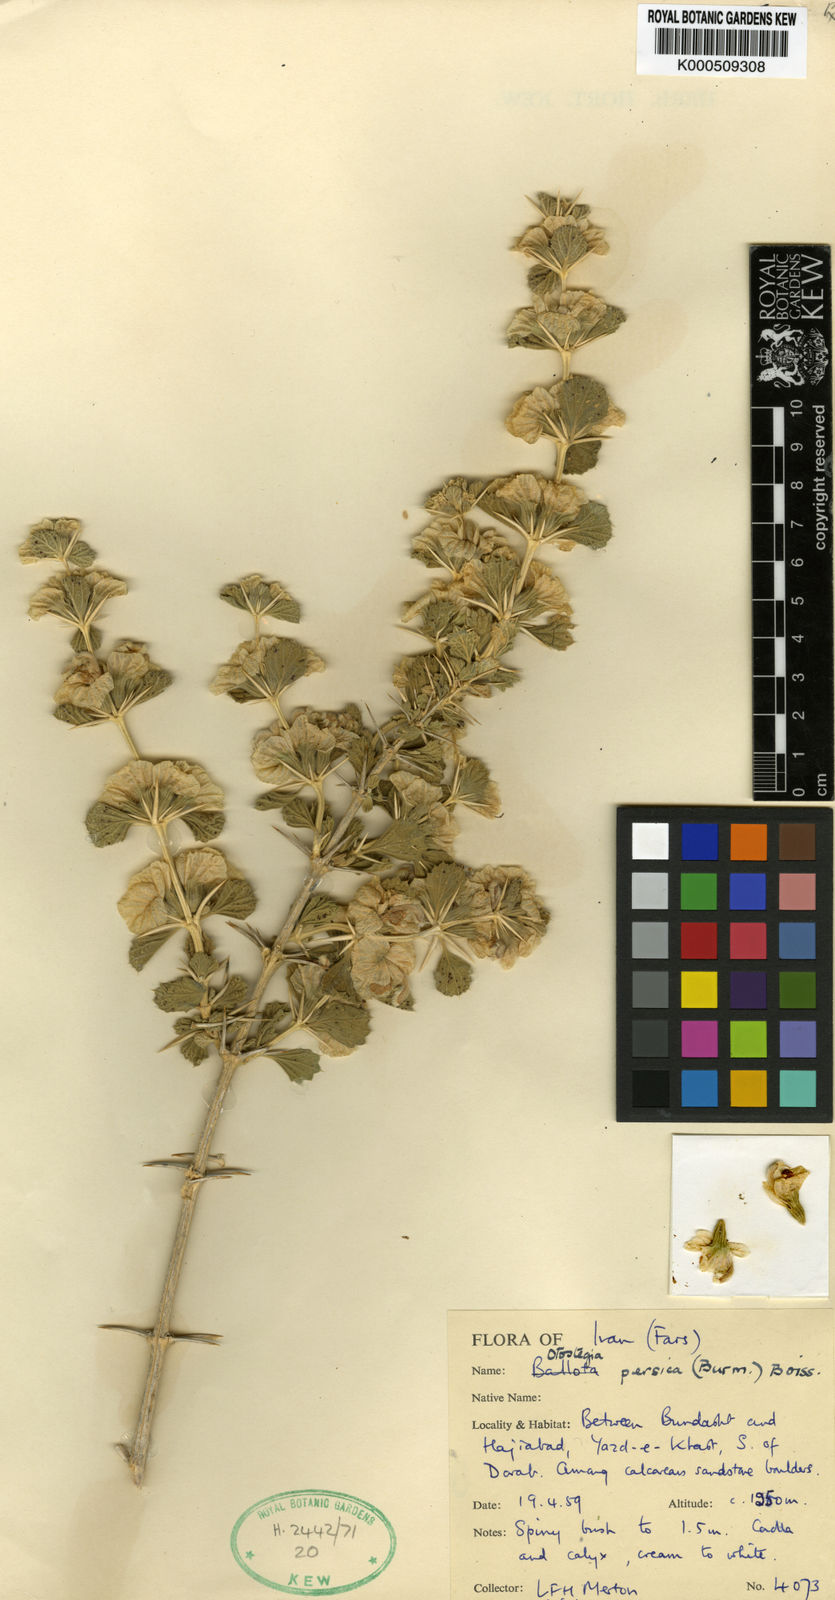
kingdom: Plantae
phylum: Tracheophyta
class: Magnoliopsida
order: Lamiales
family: Lamiaceae
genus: Rydingia
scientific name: Rydingia persica
